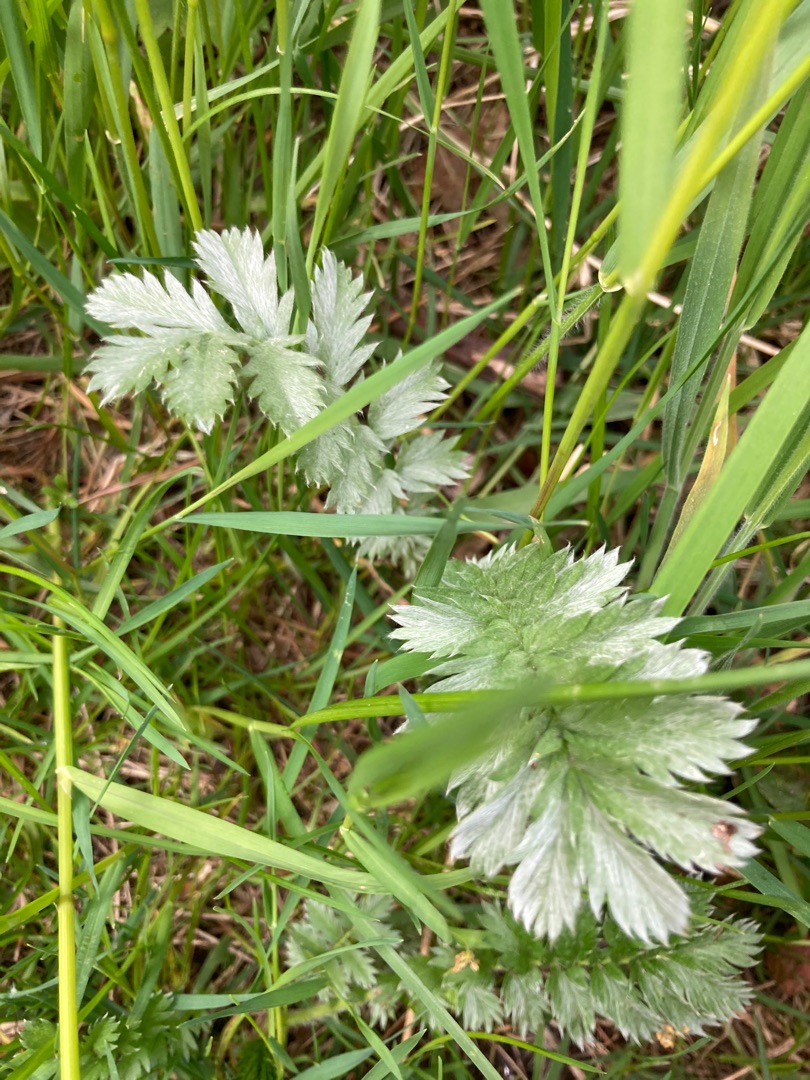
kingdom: Plantae
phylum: Tracheophyta
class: Magnoliopsida
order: Rosales
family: Rosaceae
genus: Argentina
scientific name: Argentina anserina
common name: Gåsepotentil
